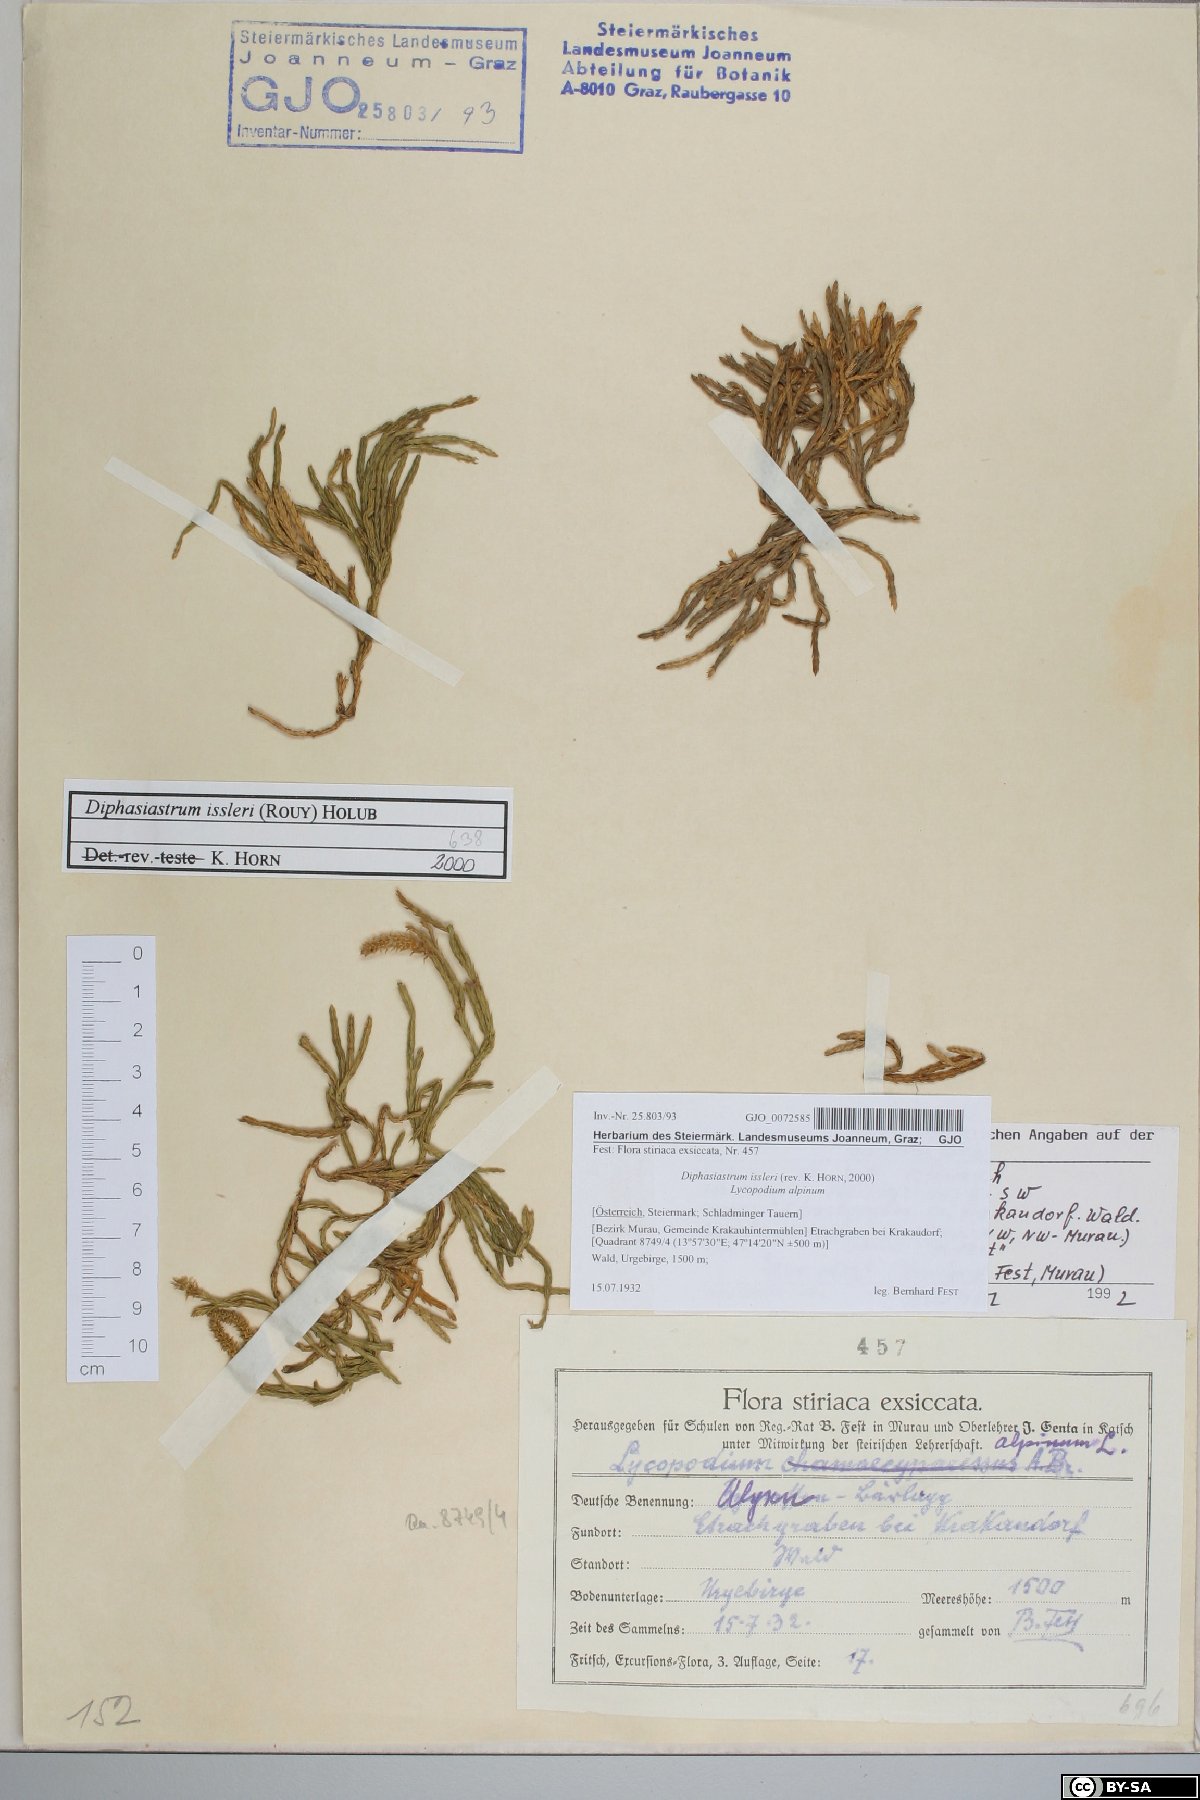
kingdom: Plantae
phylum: Tracheophyta
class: Lycopodiopsida
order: Lycopodiales
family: Lycopodiaceae
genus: Diphasiastrum
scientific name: Diphasiastrum issleri
